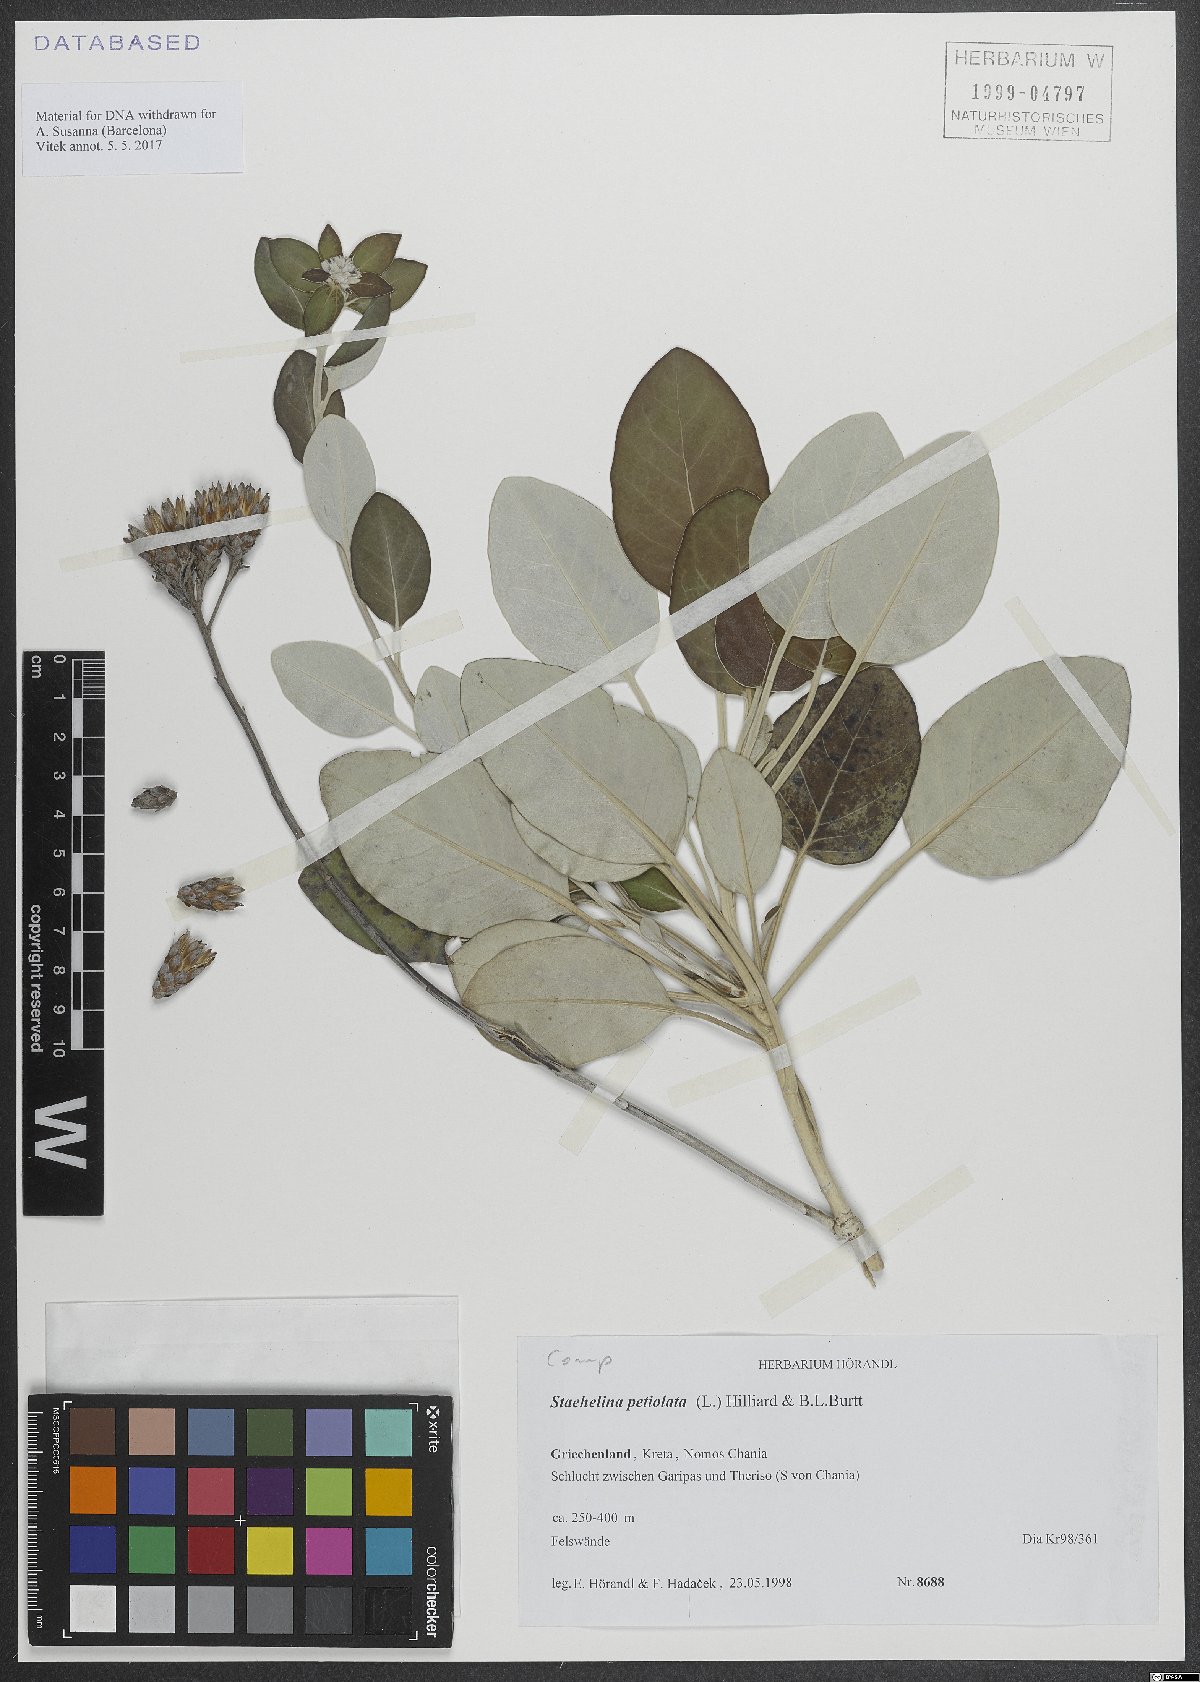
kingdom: Plantae
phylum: Tracheophyta
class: Magnoliopsida
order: Asterales
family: Asteraceae
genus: Staehelina
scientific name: Staehelina petiolata
